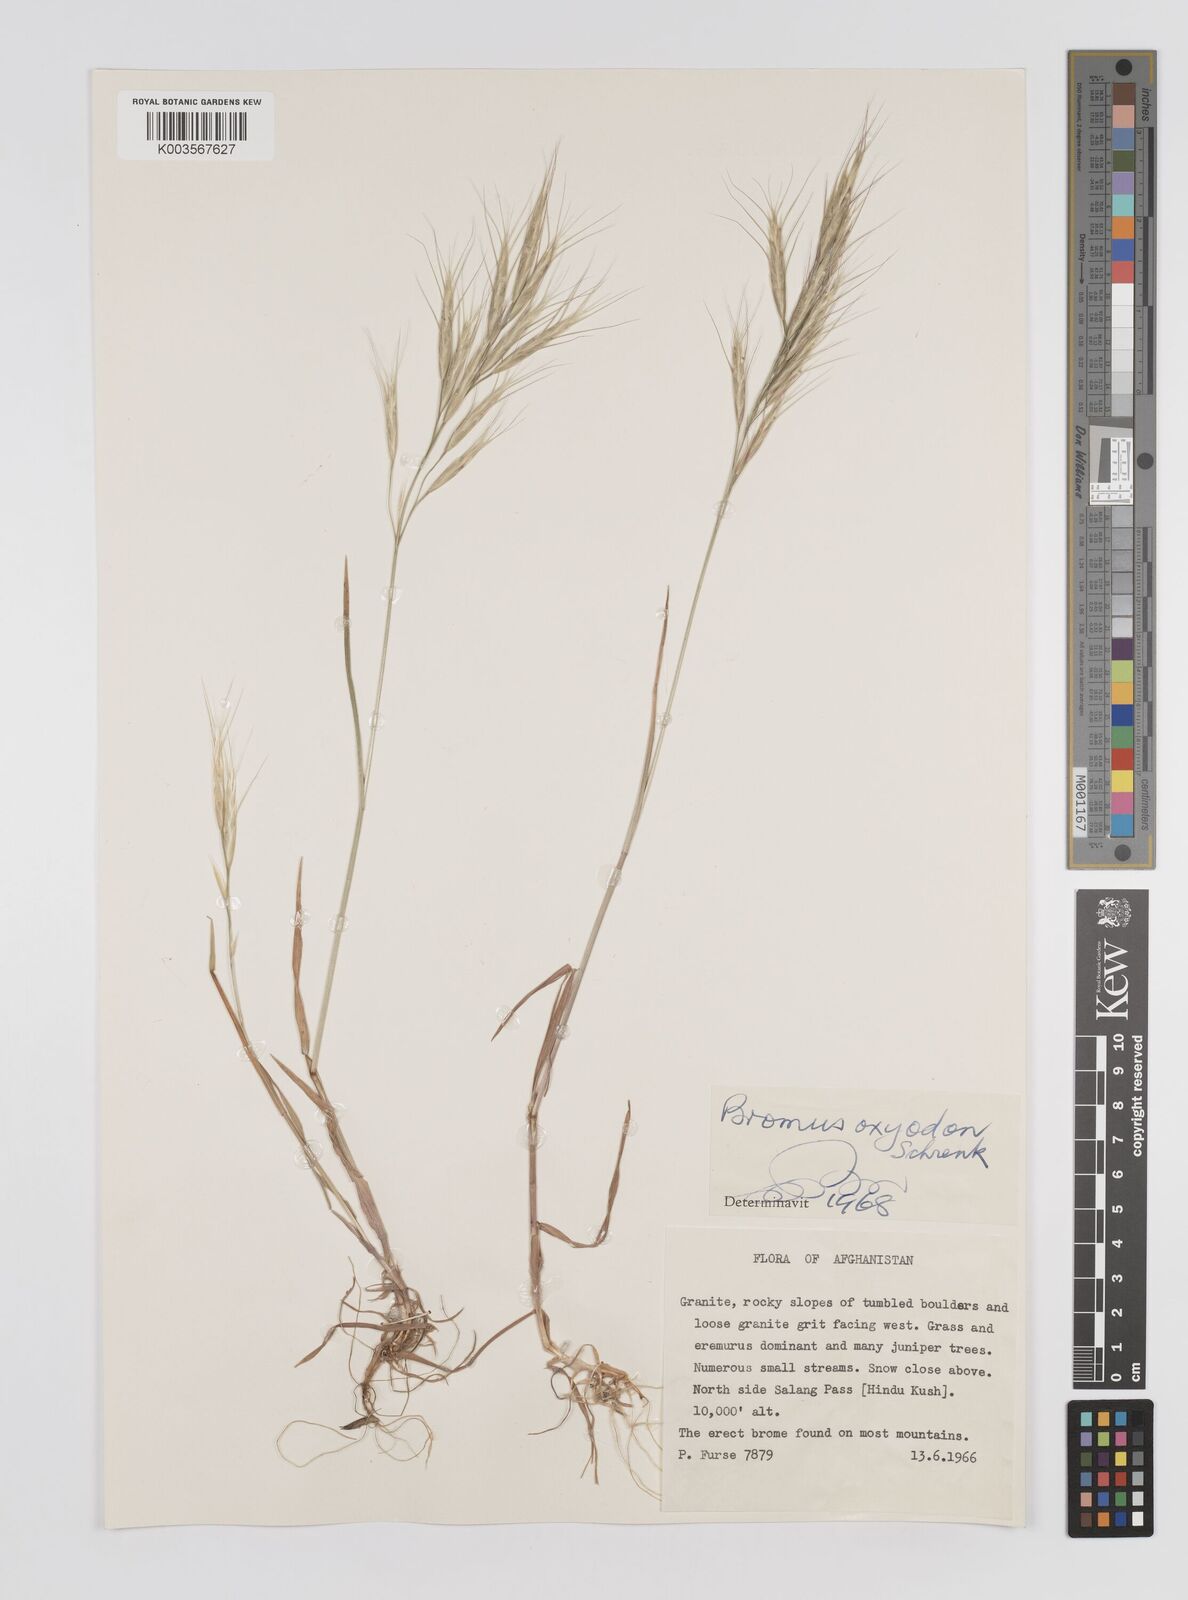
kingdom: Plantae
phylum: Tracheophyta
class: Liliopsida
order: Poales
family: Poaceae
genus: Bromus
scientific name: Bromus oxyodon
